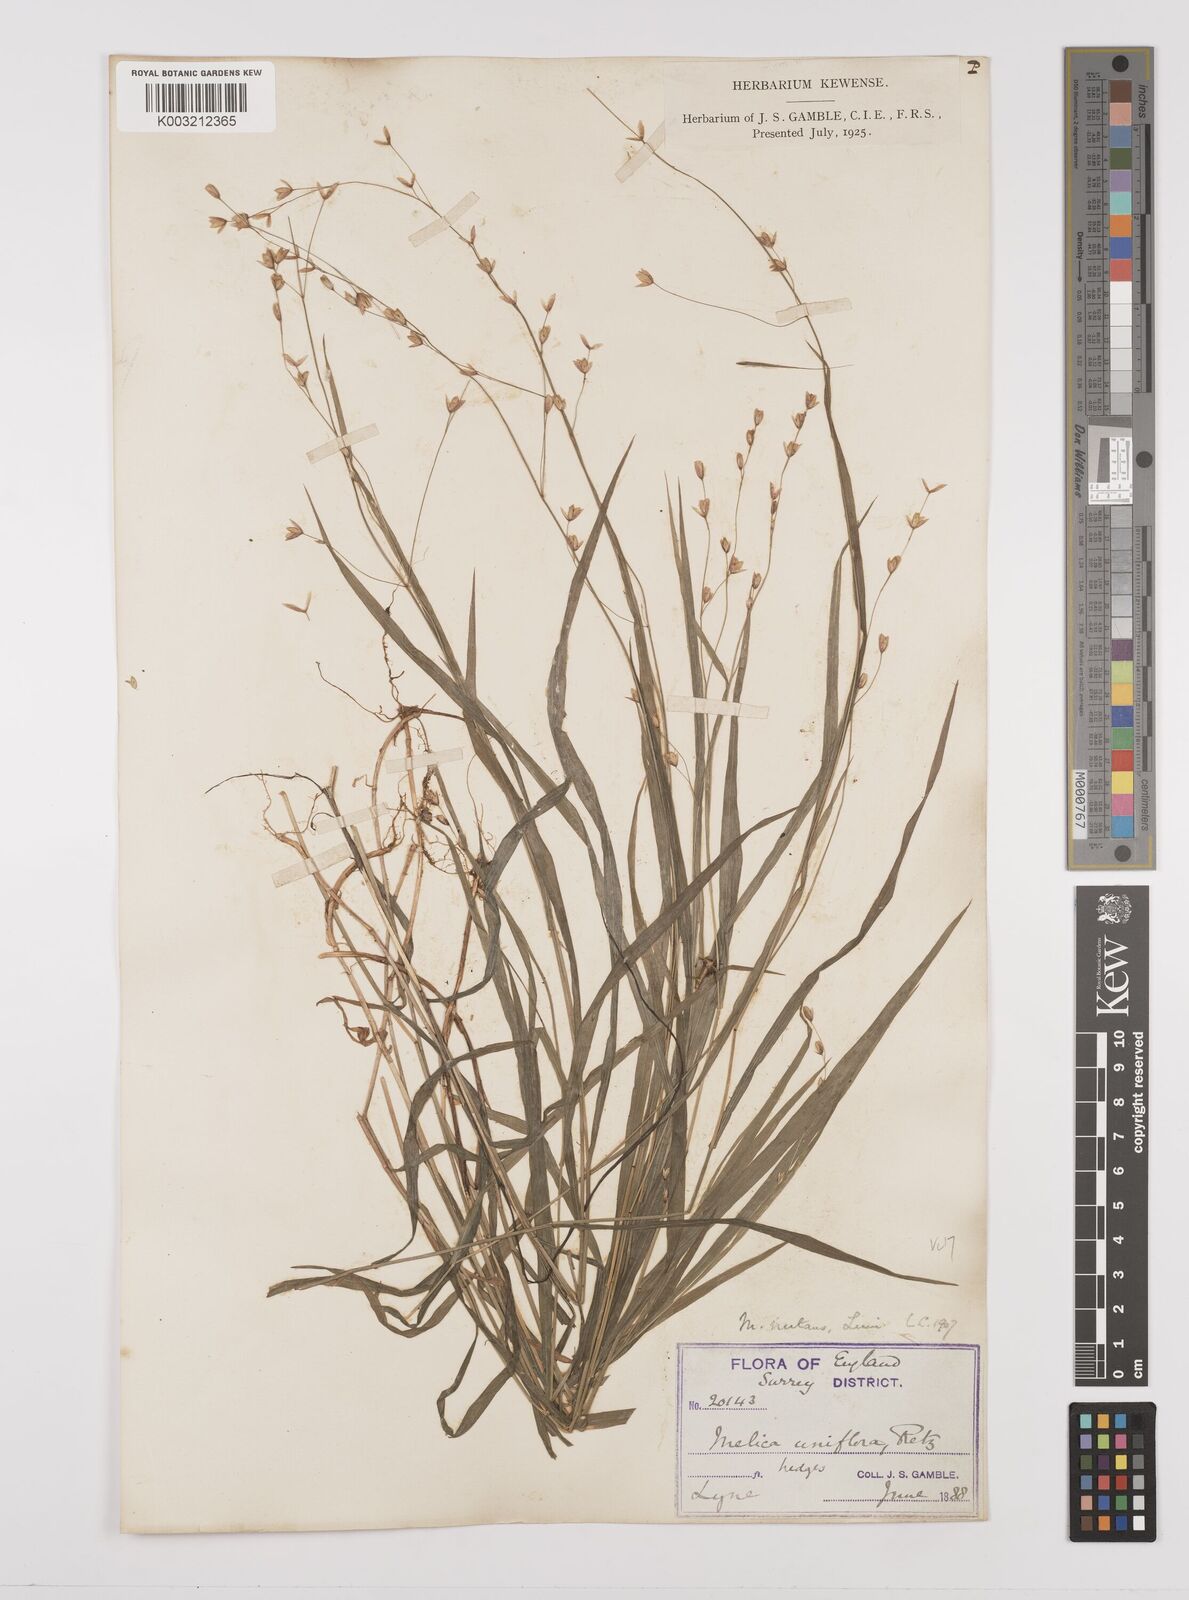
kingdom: Plantae
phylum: Tracheophyta
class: Liliopsida
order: Poales
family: Poaceae
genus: Melica
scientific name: Melica uniflora
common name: Wood melick
